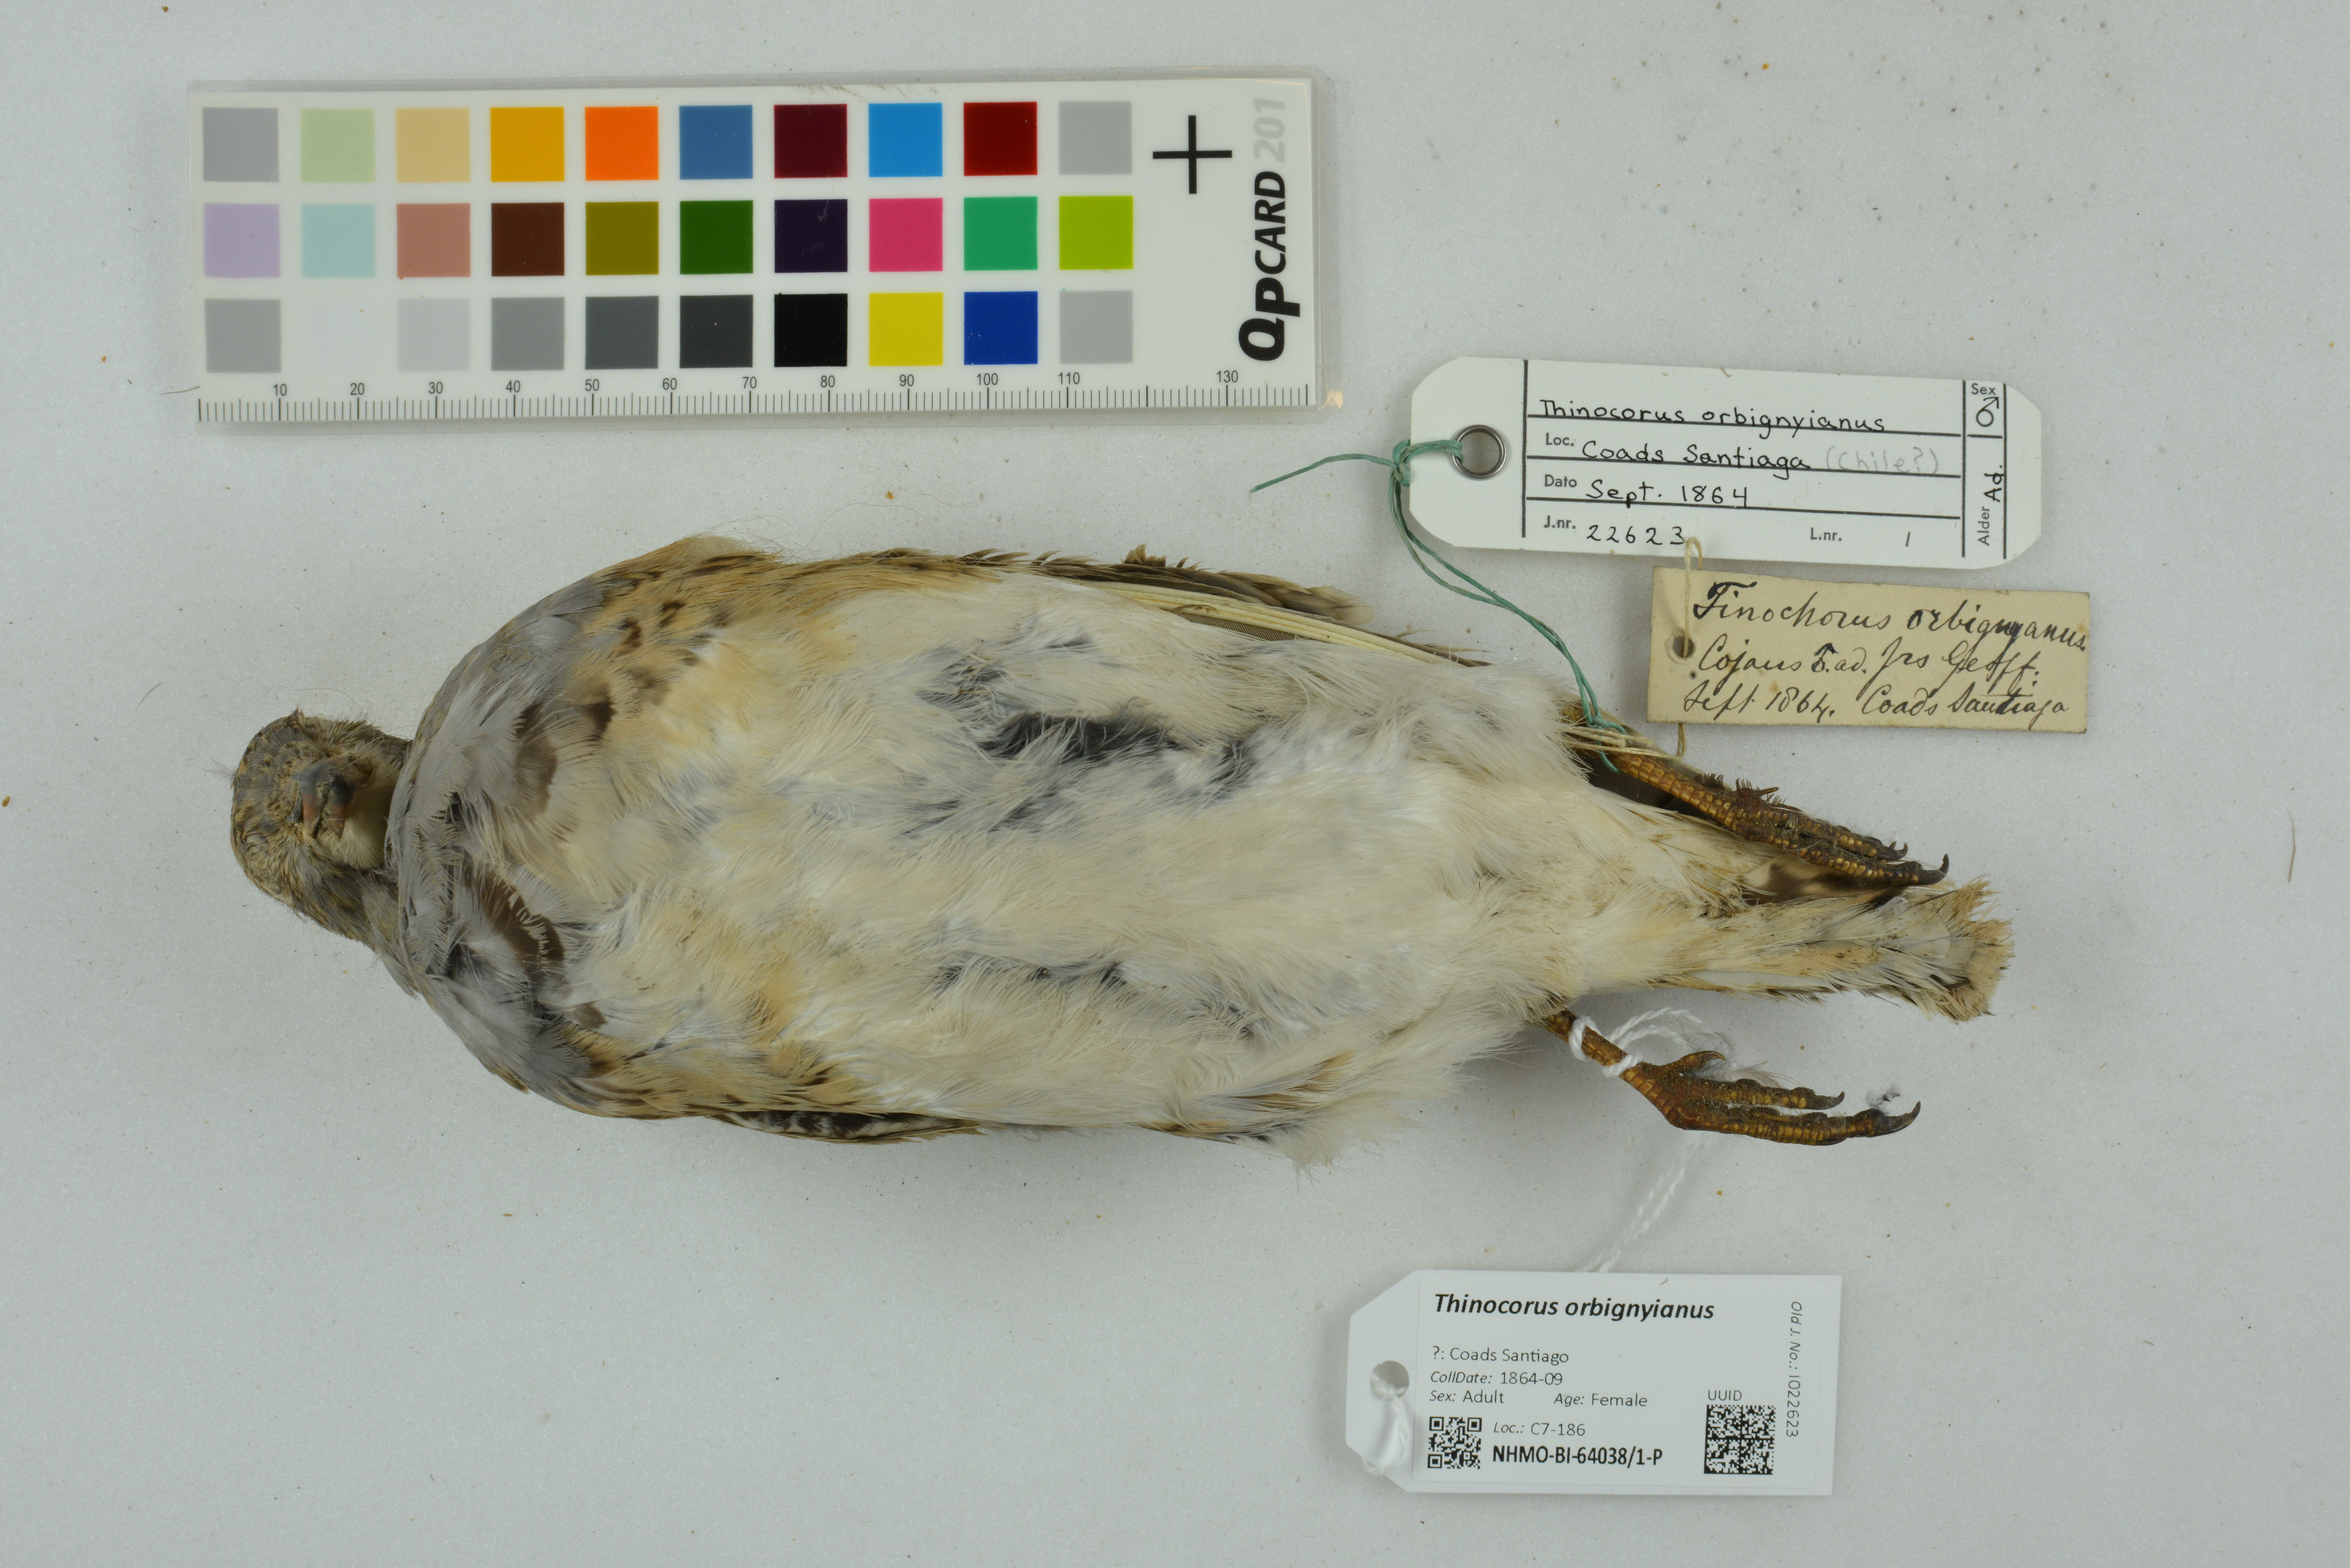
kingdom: Animalia
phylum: Chordata
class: Aves
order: Charadriiformes
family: Thinocoridae
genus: Thinocorus
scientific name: Thinocorus orbignyianus
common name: Grey-breasted seedsnipe
